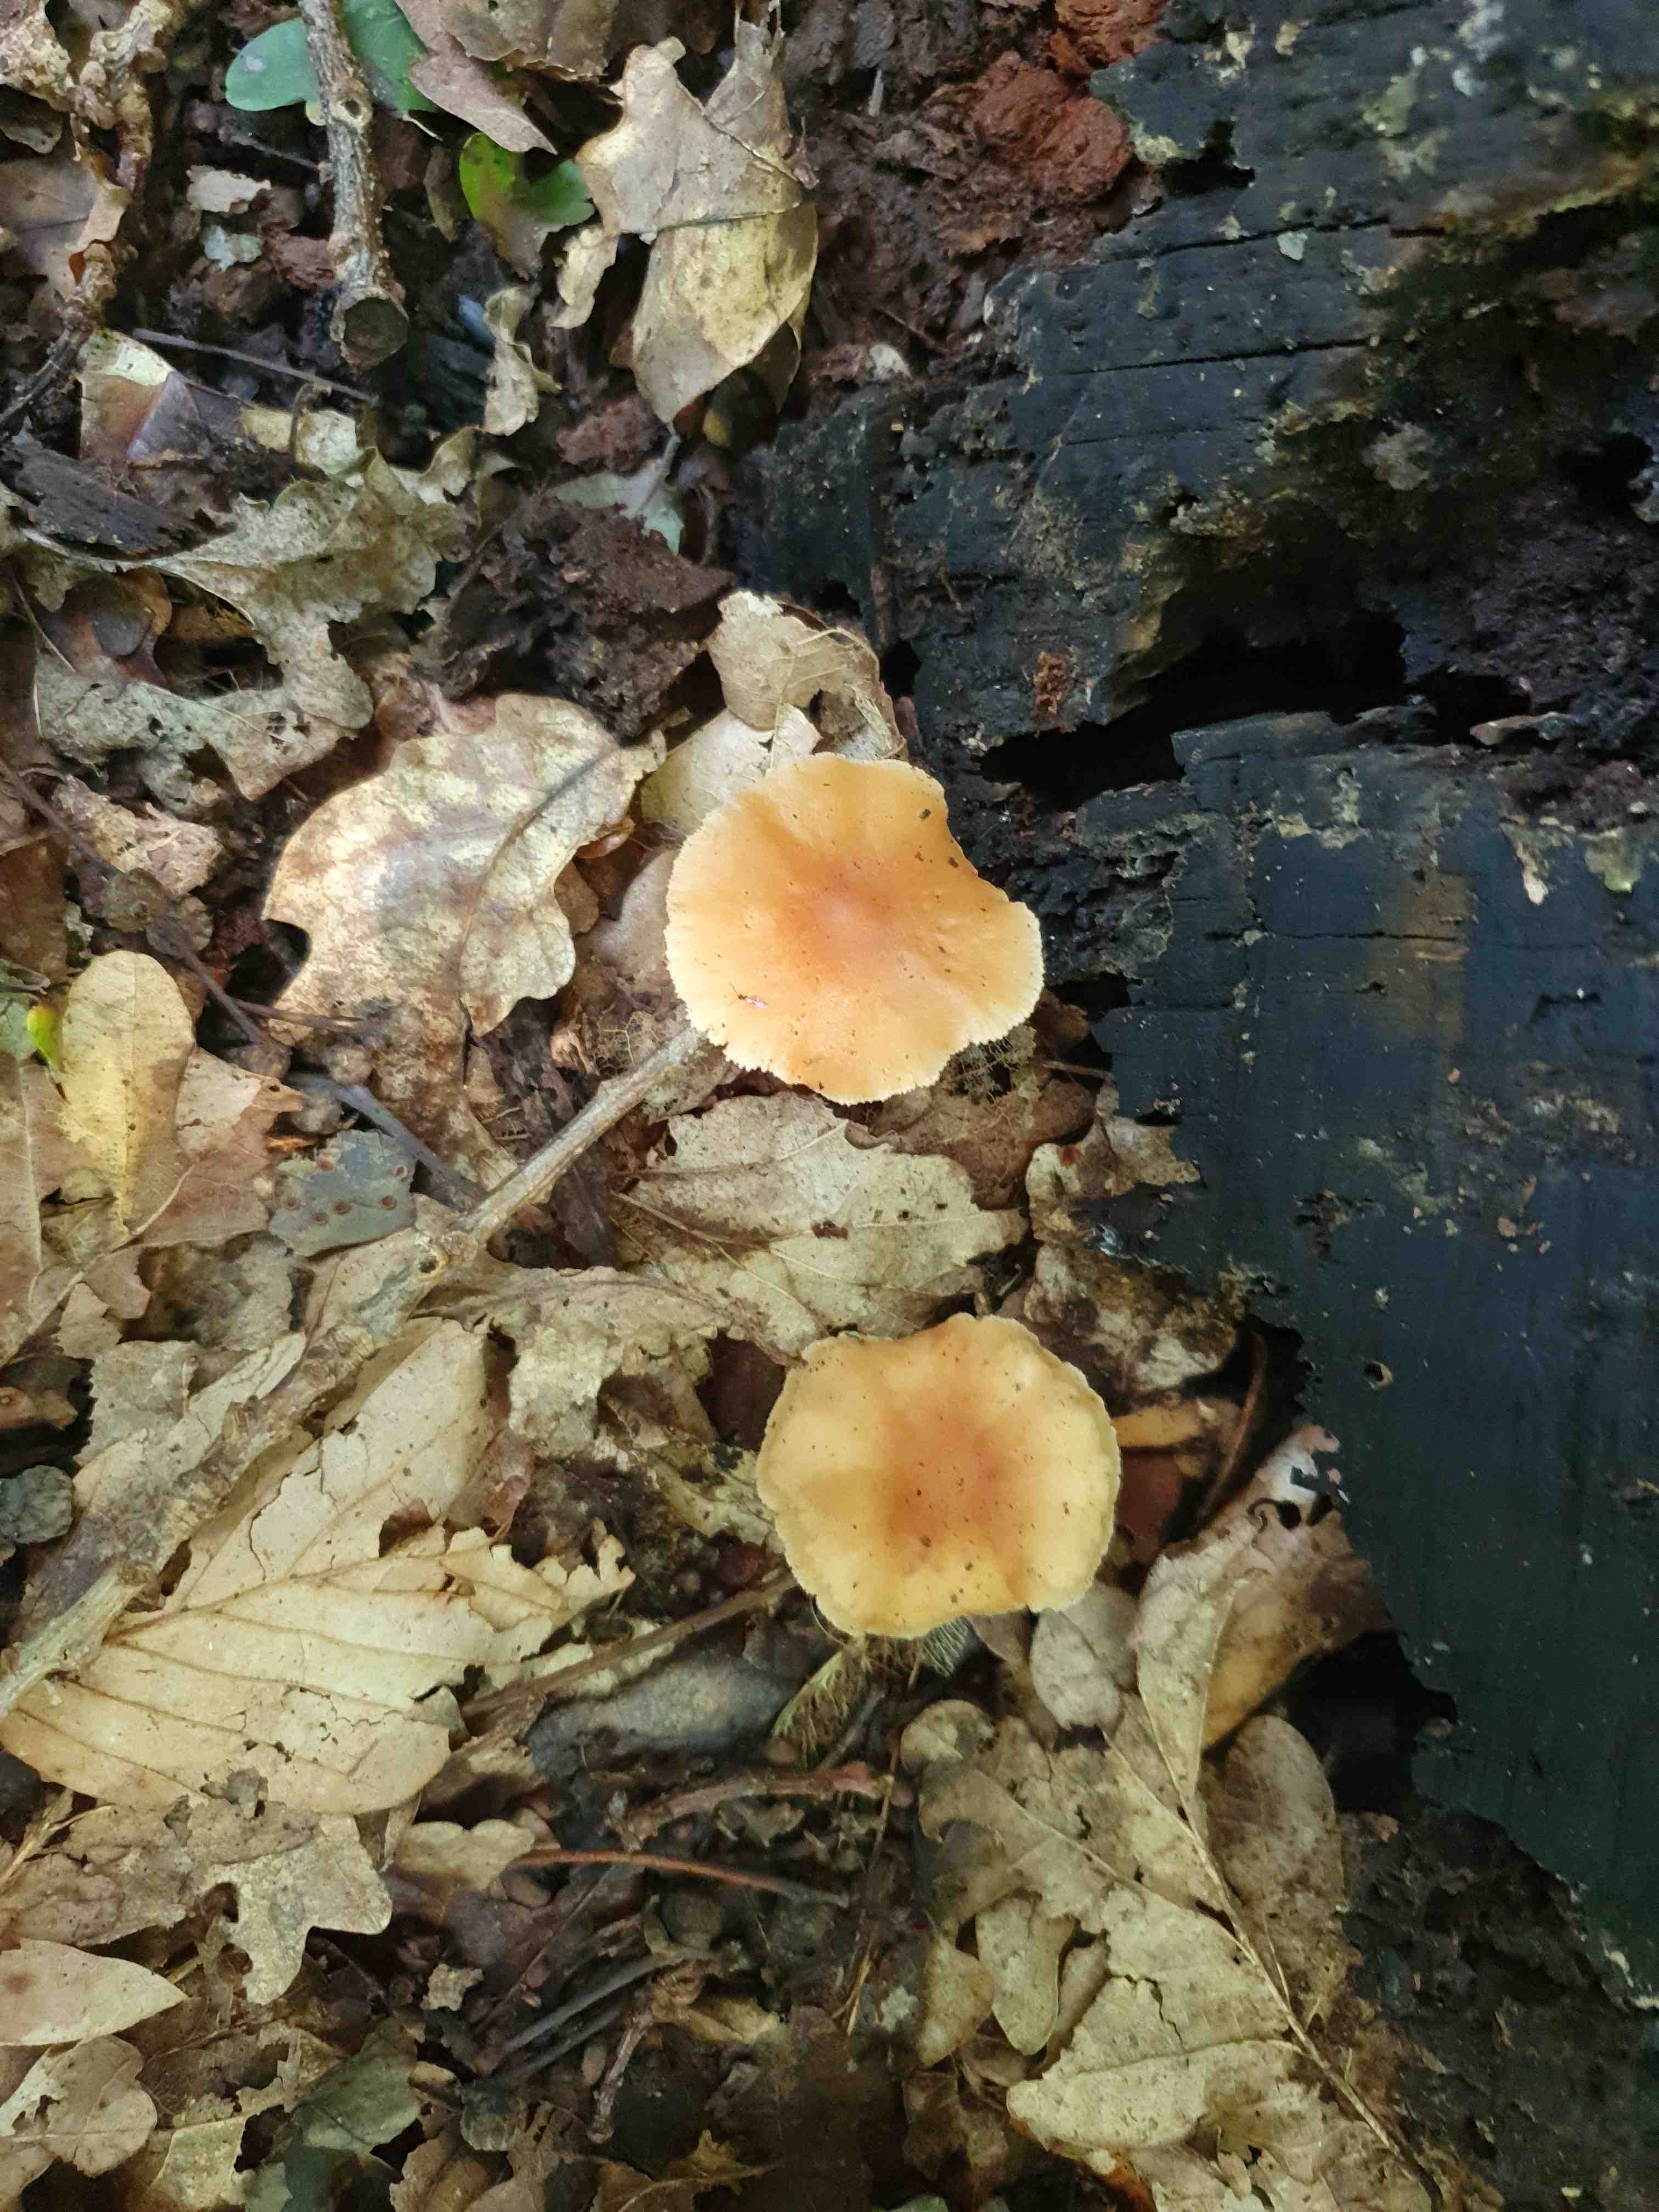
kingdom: Fungi
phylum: Basidiomycota
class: Agaricomycetes
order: Agaricales
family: Omphalotaceae
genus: Gymnopus
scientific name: Gymnopus
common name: fladhat
